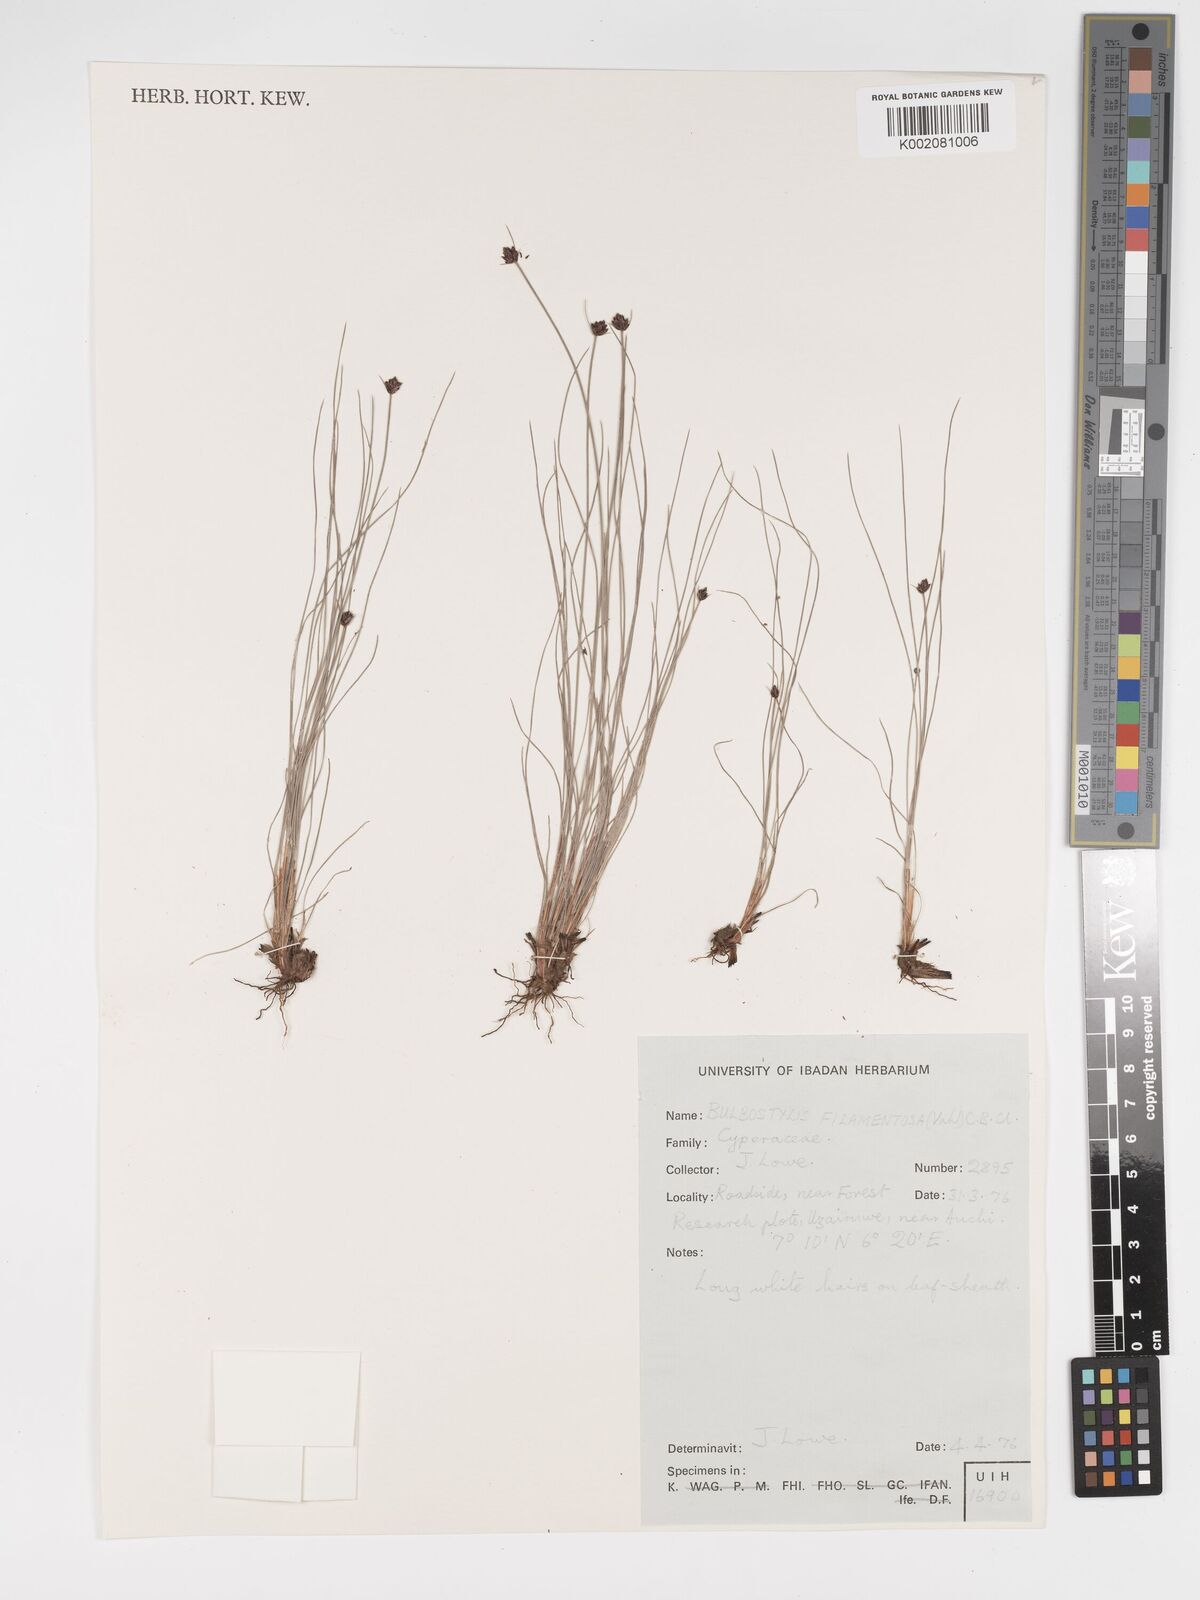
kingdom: Plantae
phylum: Tracheophyta
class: Liliopsida
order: Poales
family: Cyperaceae
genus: Bulbostylis
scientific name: Bulbostylis filamentosa
